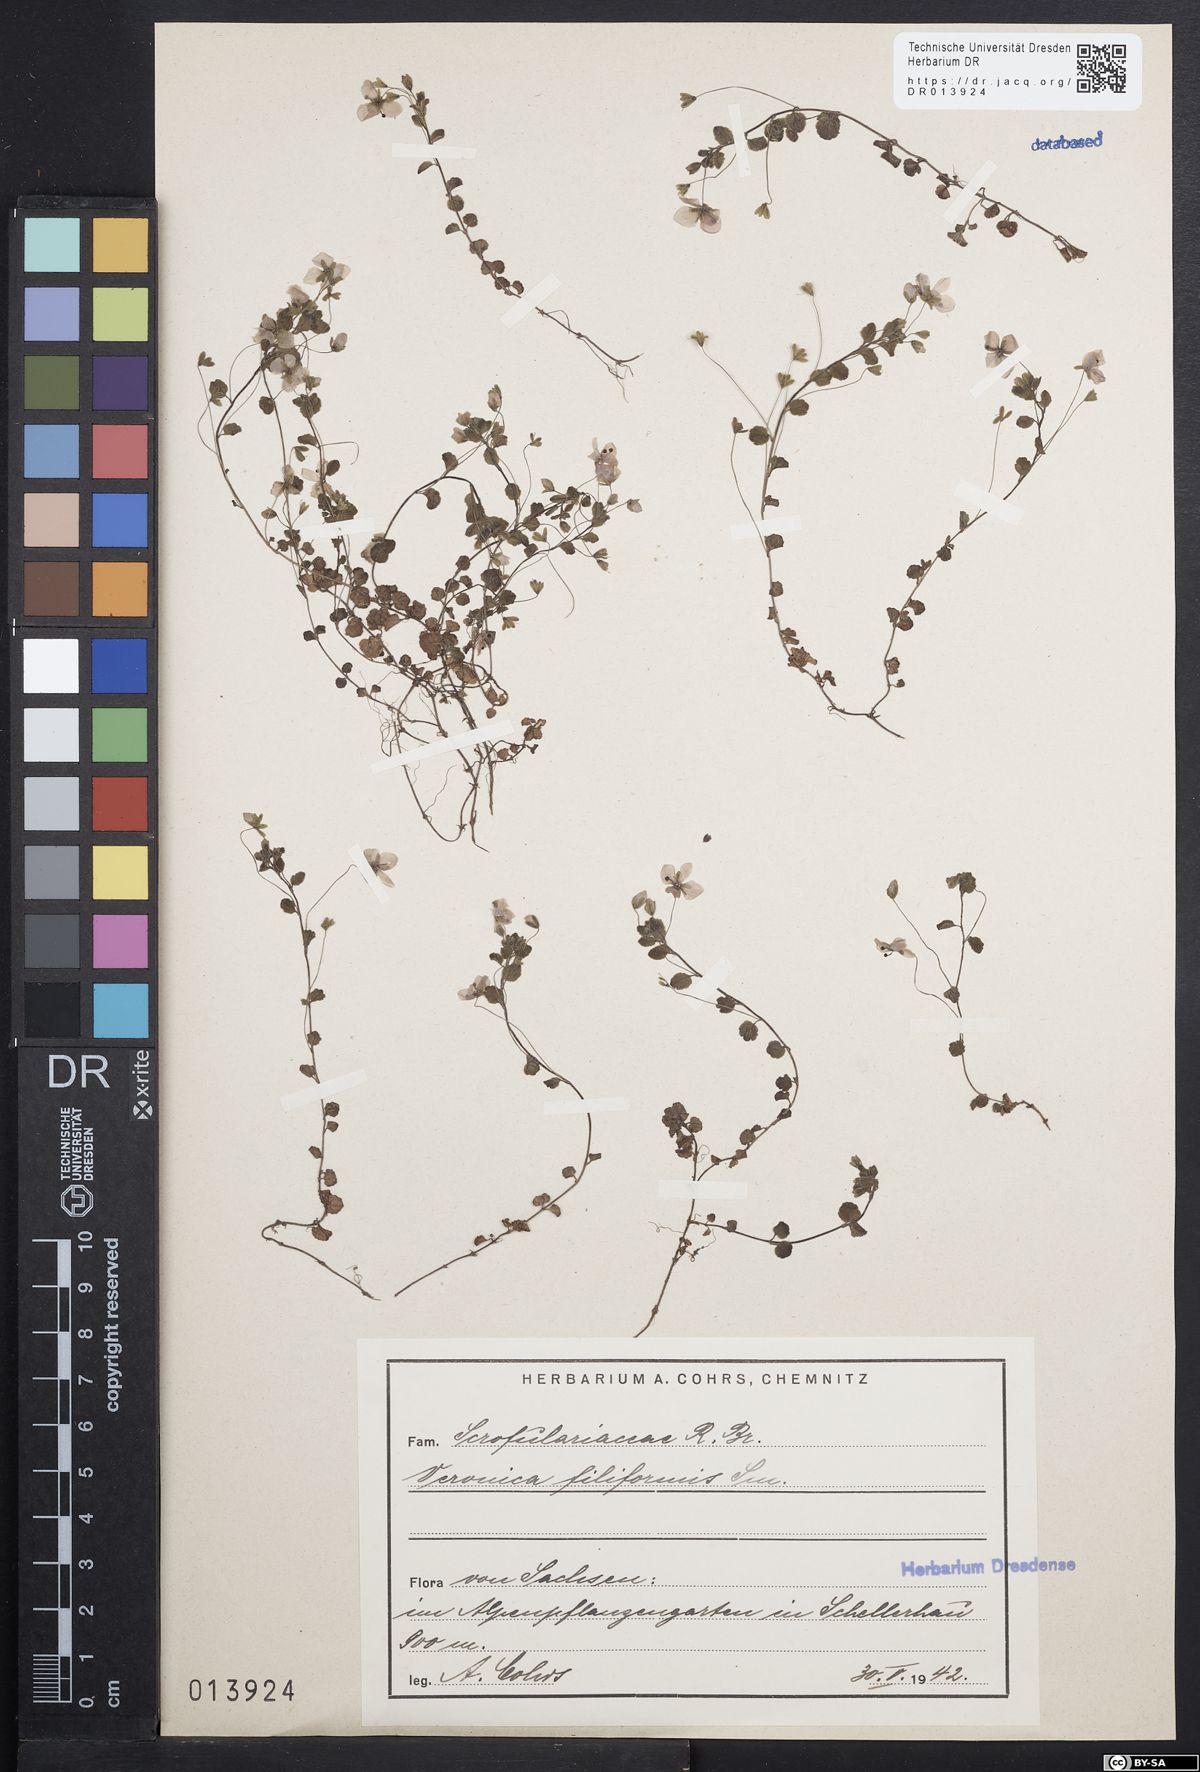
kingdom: Plantae
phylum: Tracheophyta
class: Magnoliopsida
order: Lamiales
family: Plantaginaceae
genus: Veronica
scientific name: Veronica filiformis
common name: Slender speedwell
